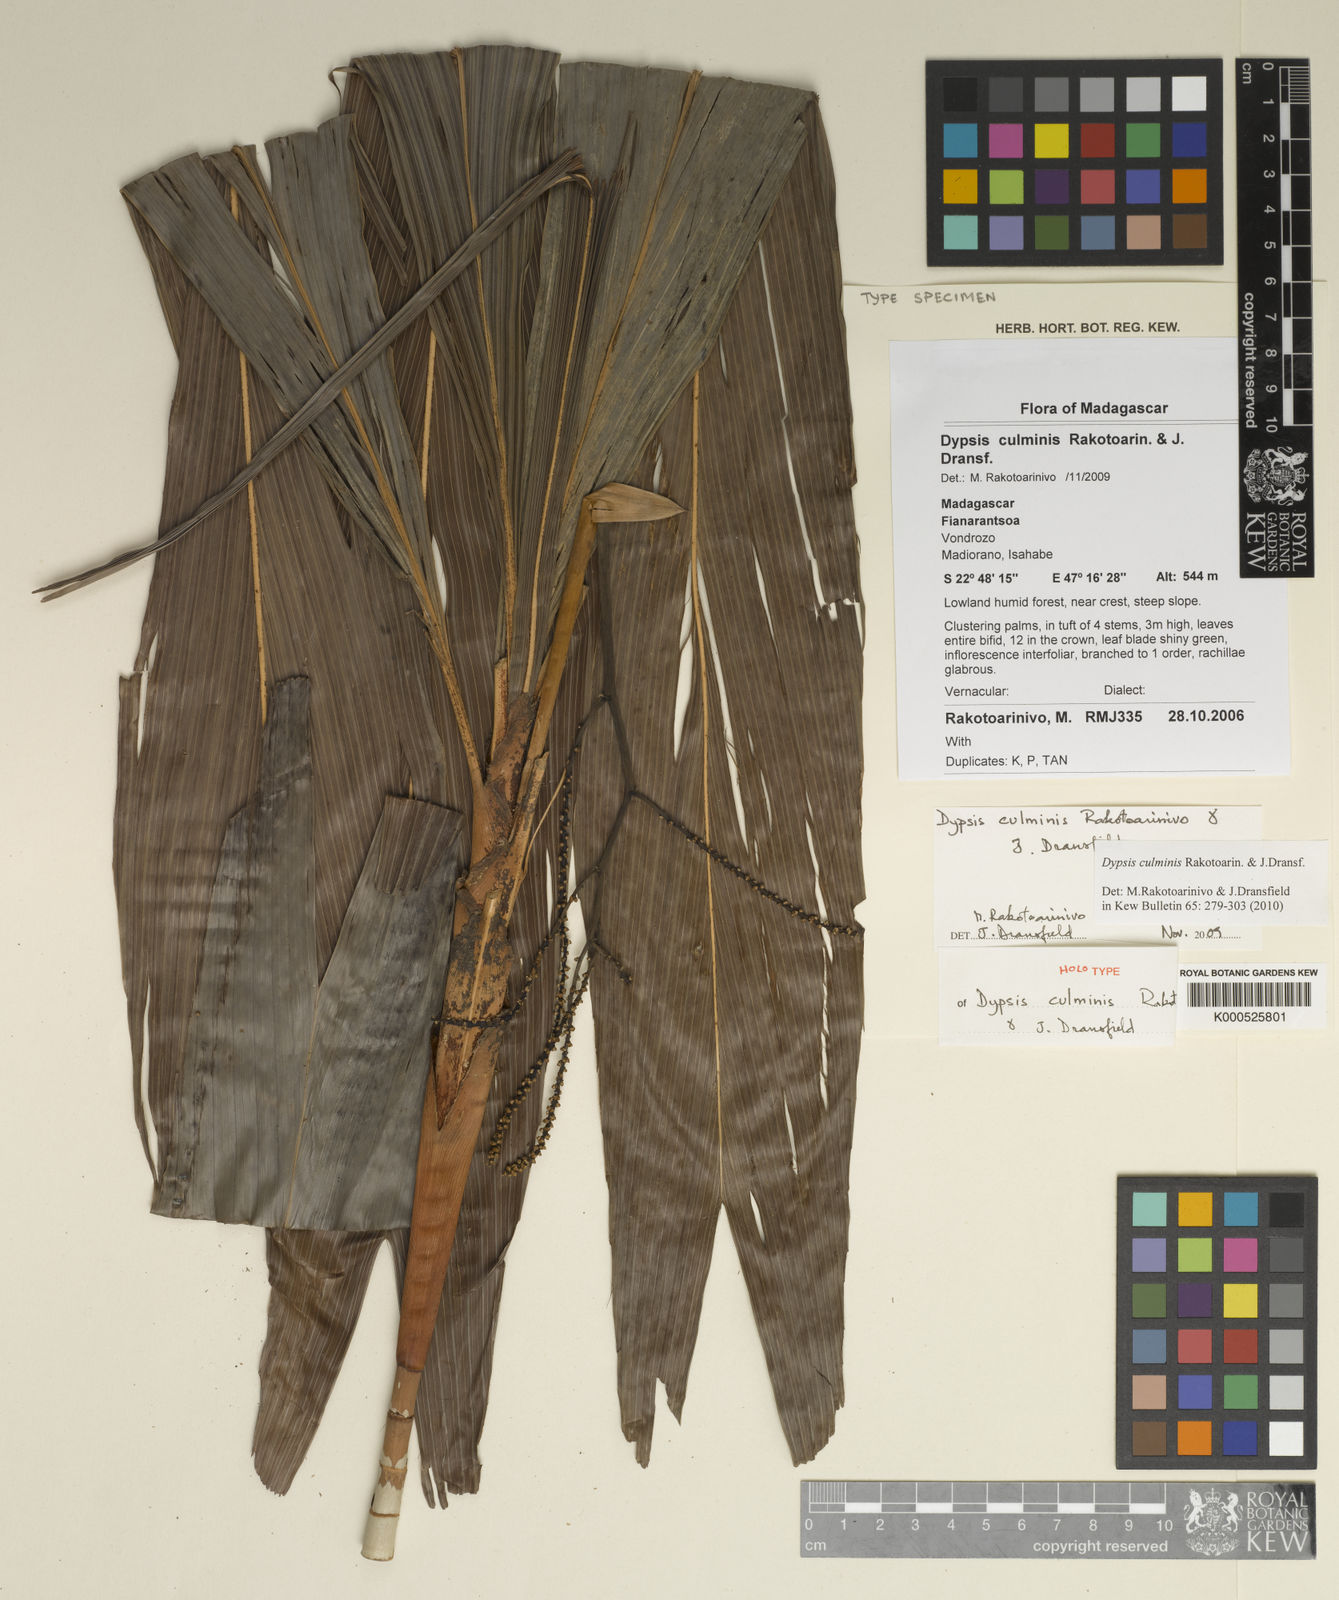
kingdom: Plantae
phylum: Tracheophyta
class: Liliopsida
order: Arecales
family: Arecaceae
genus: Dypsis
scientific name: Dypsis culminis
